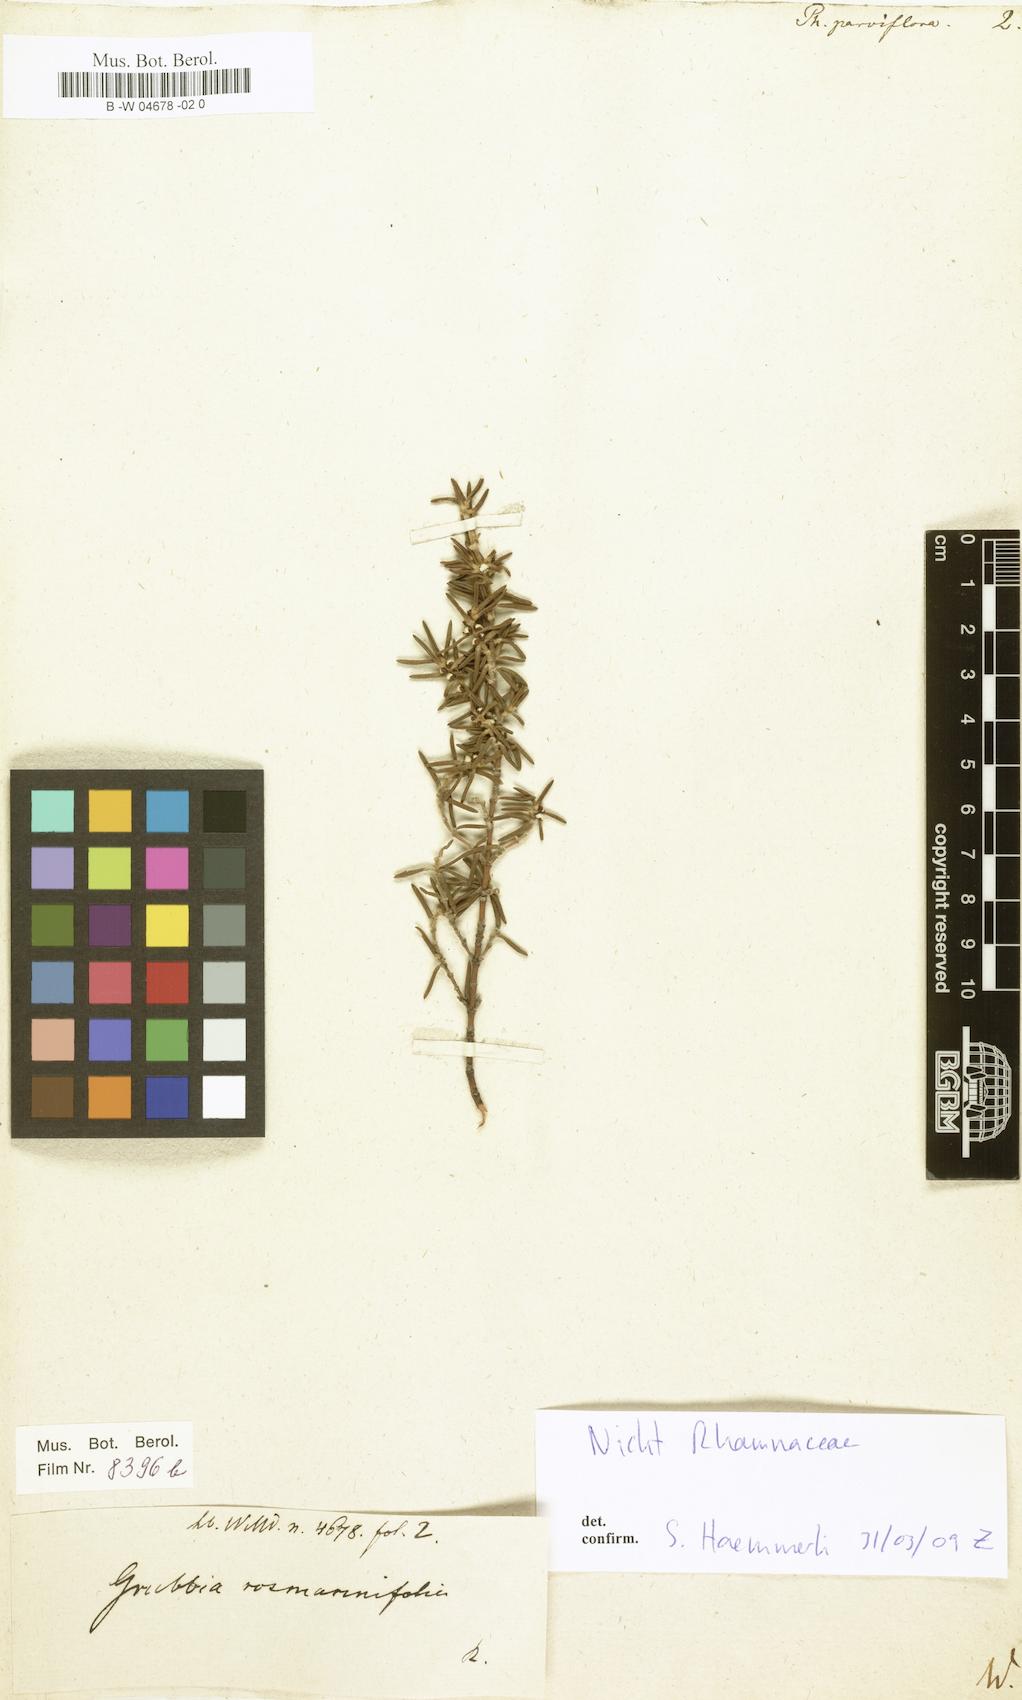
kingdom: Plantae
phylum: Tracheophyta
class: Magnoliopsida
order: Rosales
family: Rhamnaceae
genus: Phylica
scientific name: Phylica parviflora
